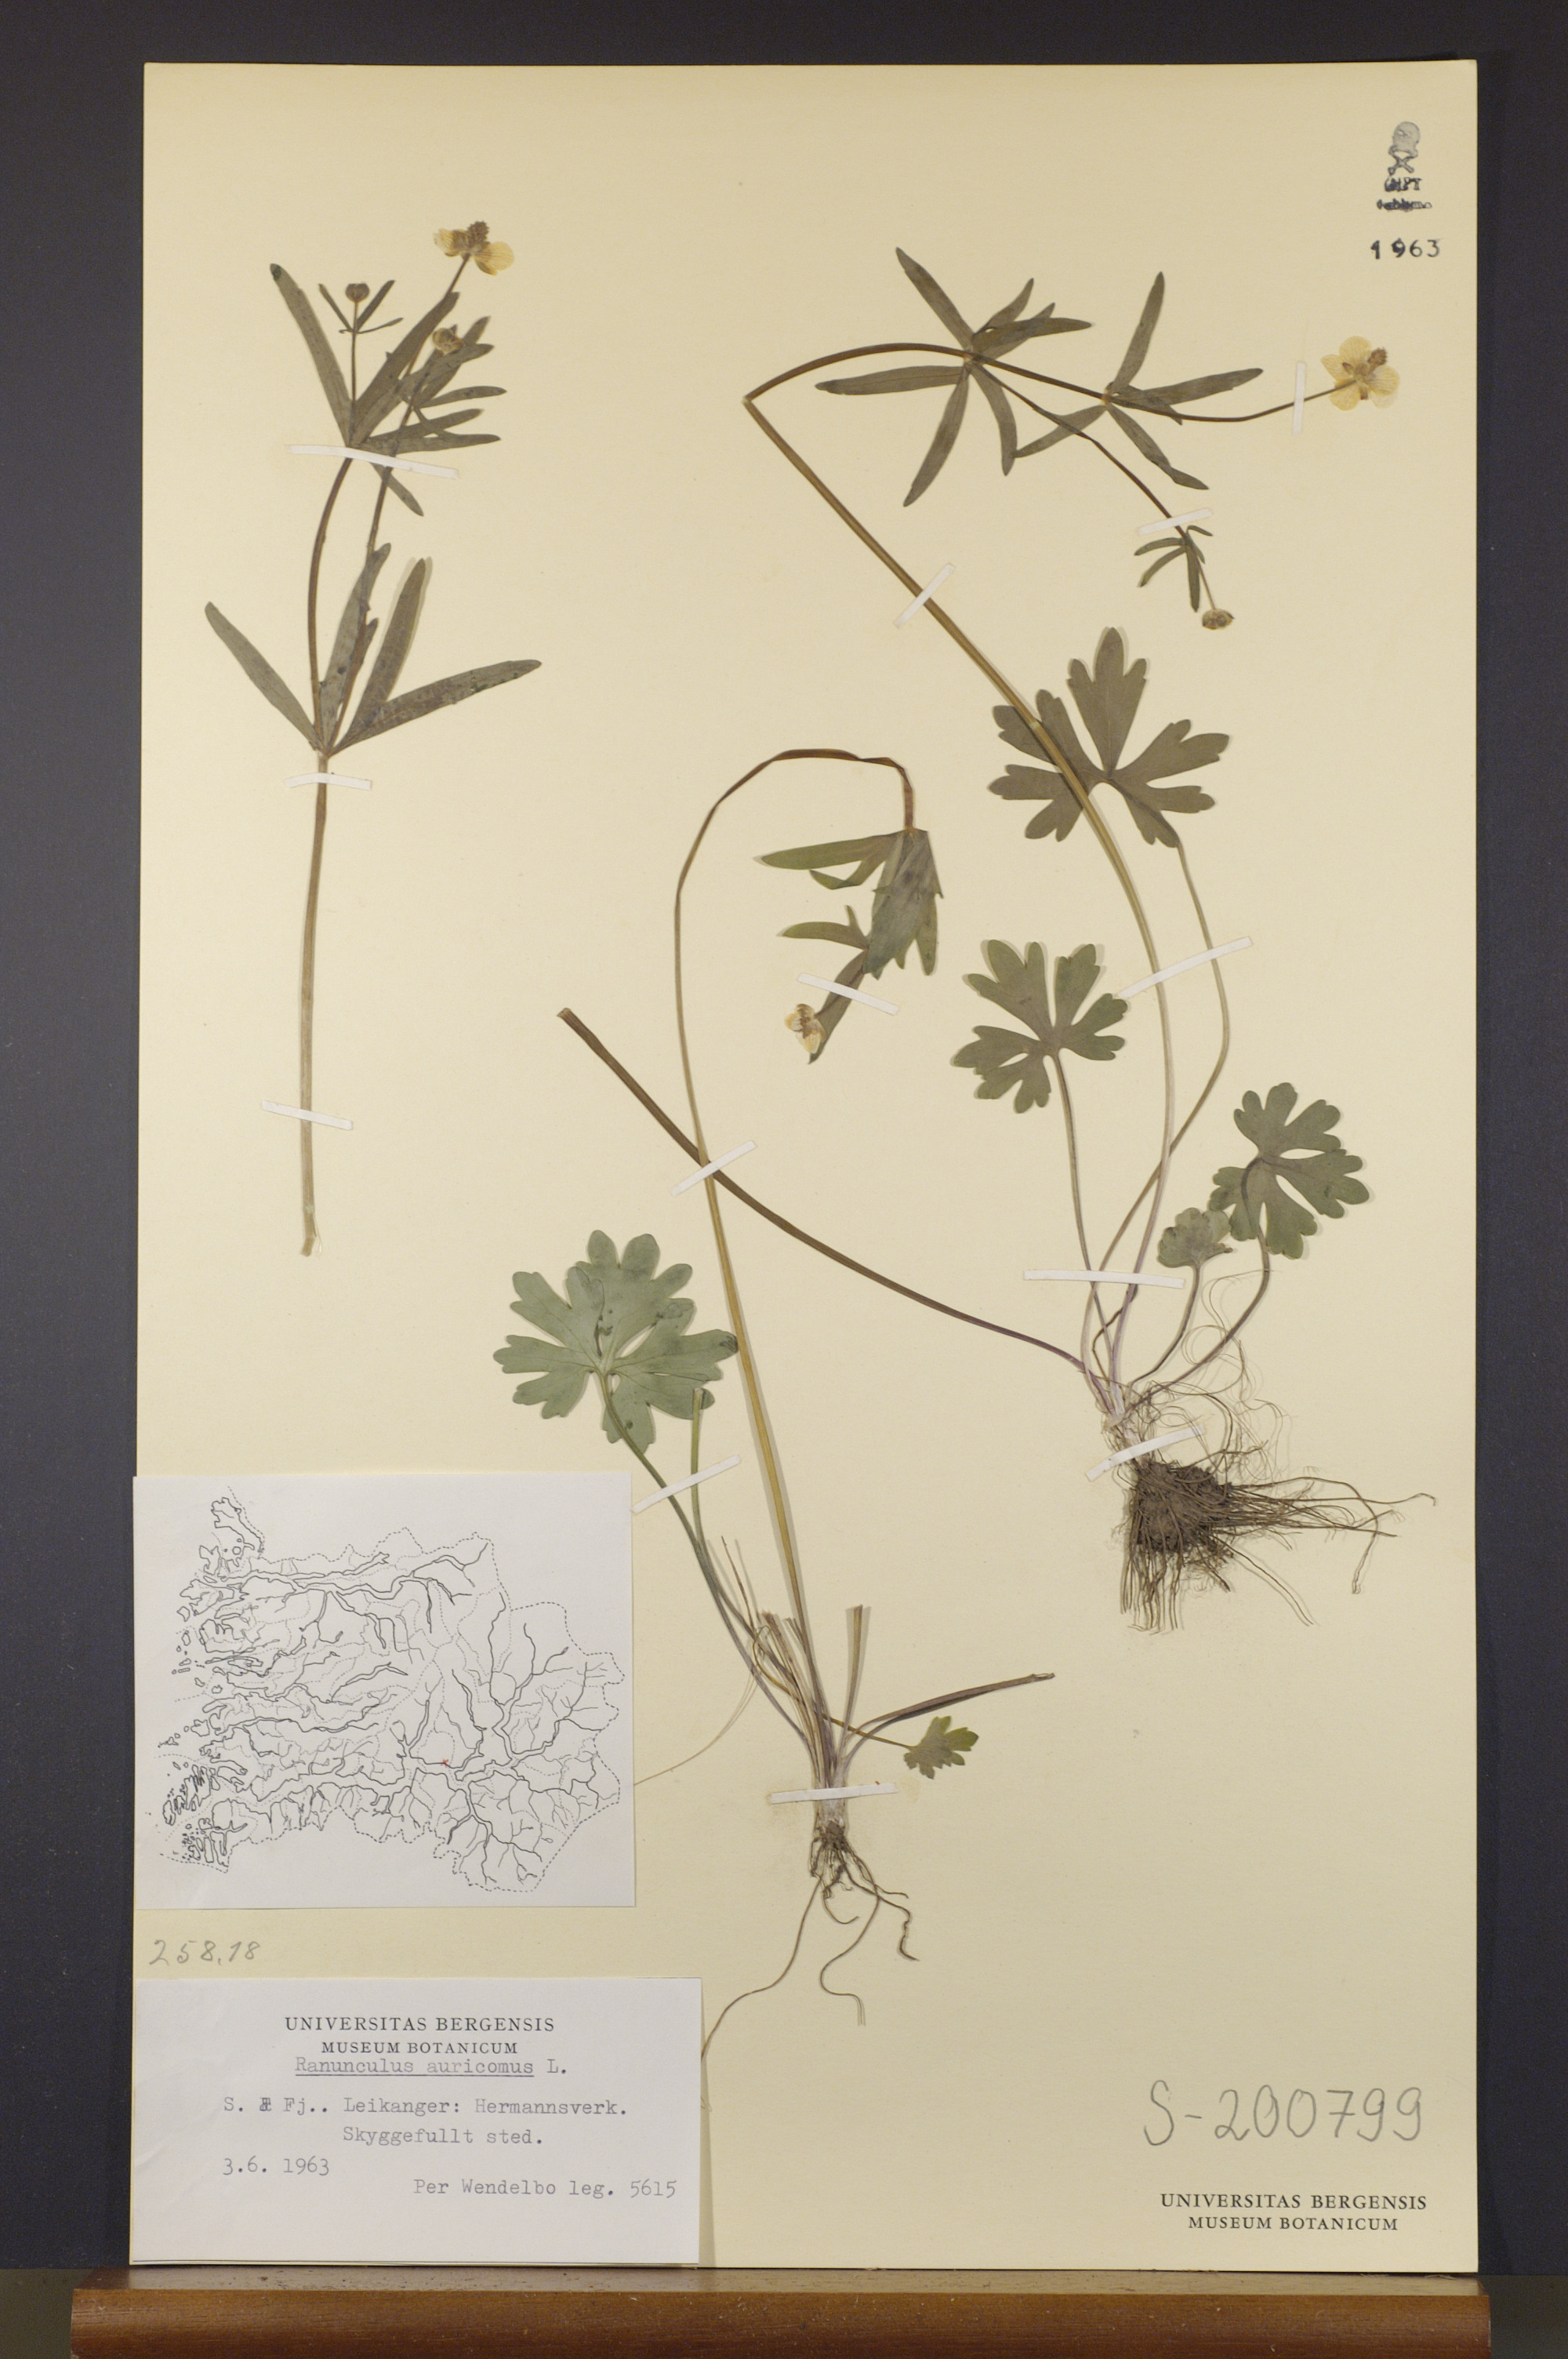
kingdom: Plantae
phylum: Tracheophyta
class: Magnoliopsida
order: Ranunculales
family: Ranunculaceae
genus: Ranunculus
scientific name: Ranunculus auricomus
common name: Goldilocks buttercup
